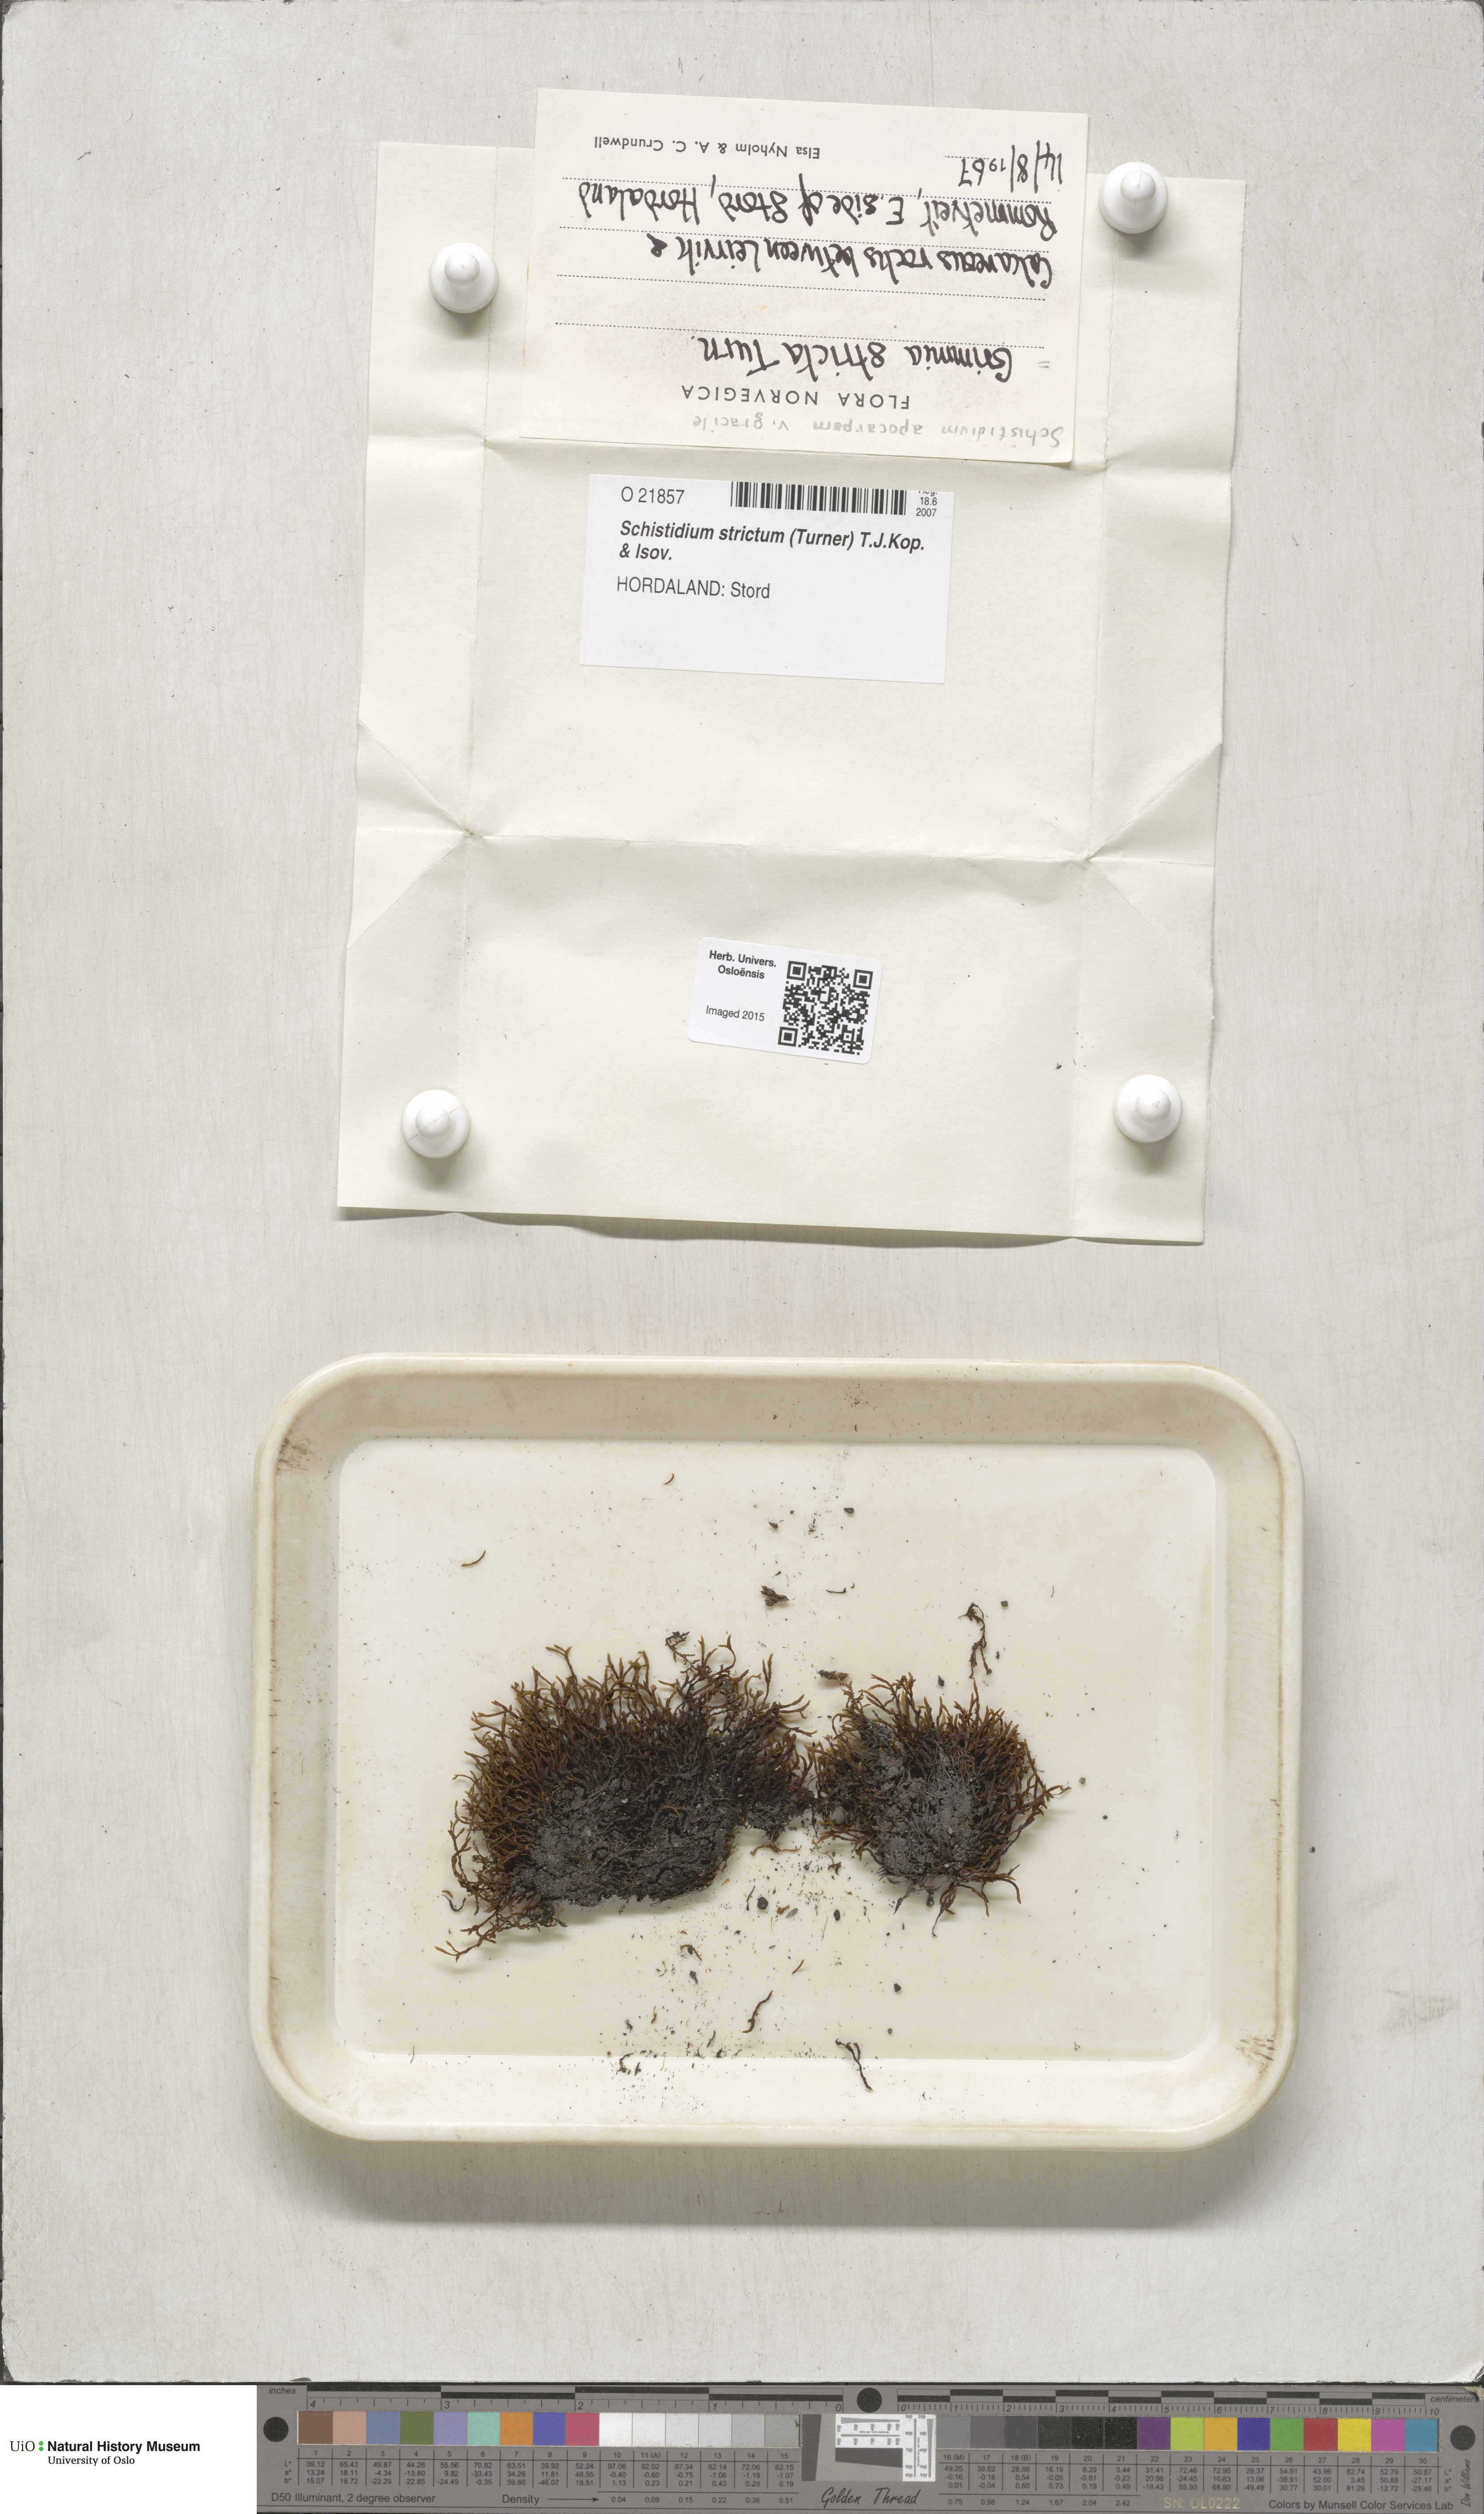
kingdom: Plantae
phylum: Bryophyta
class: Bryopsida
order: Grimmiales
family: Grimmiaceae
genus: Schistidium
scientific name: Schistidium strictum
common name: Upright brown grimmia
